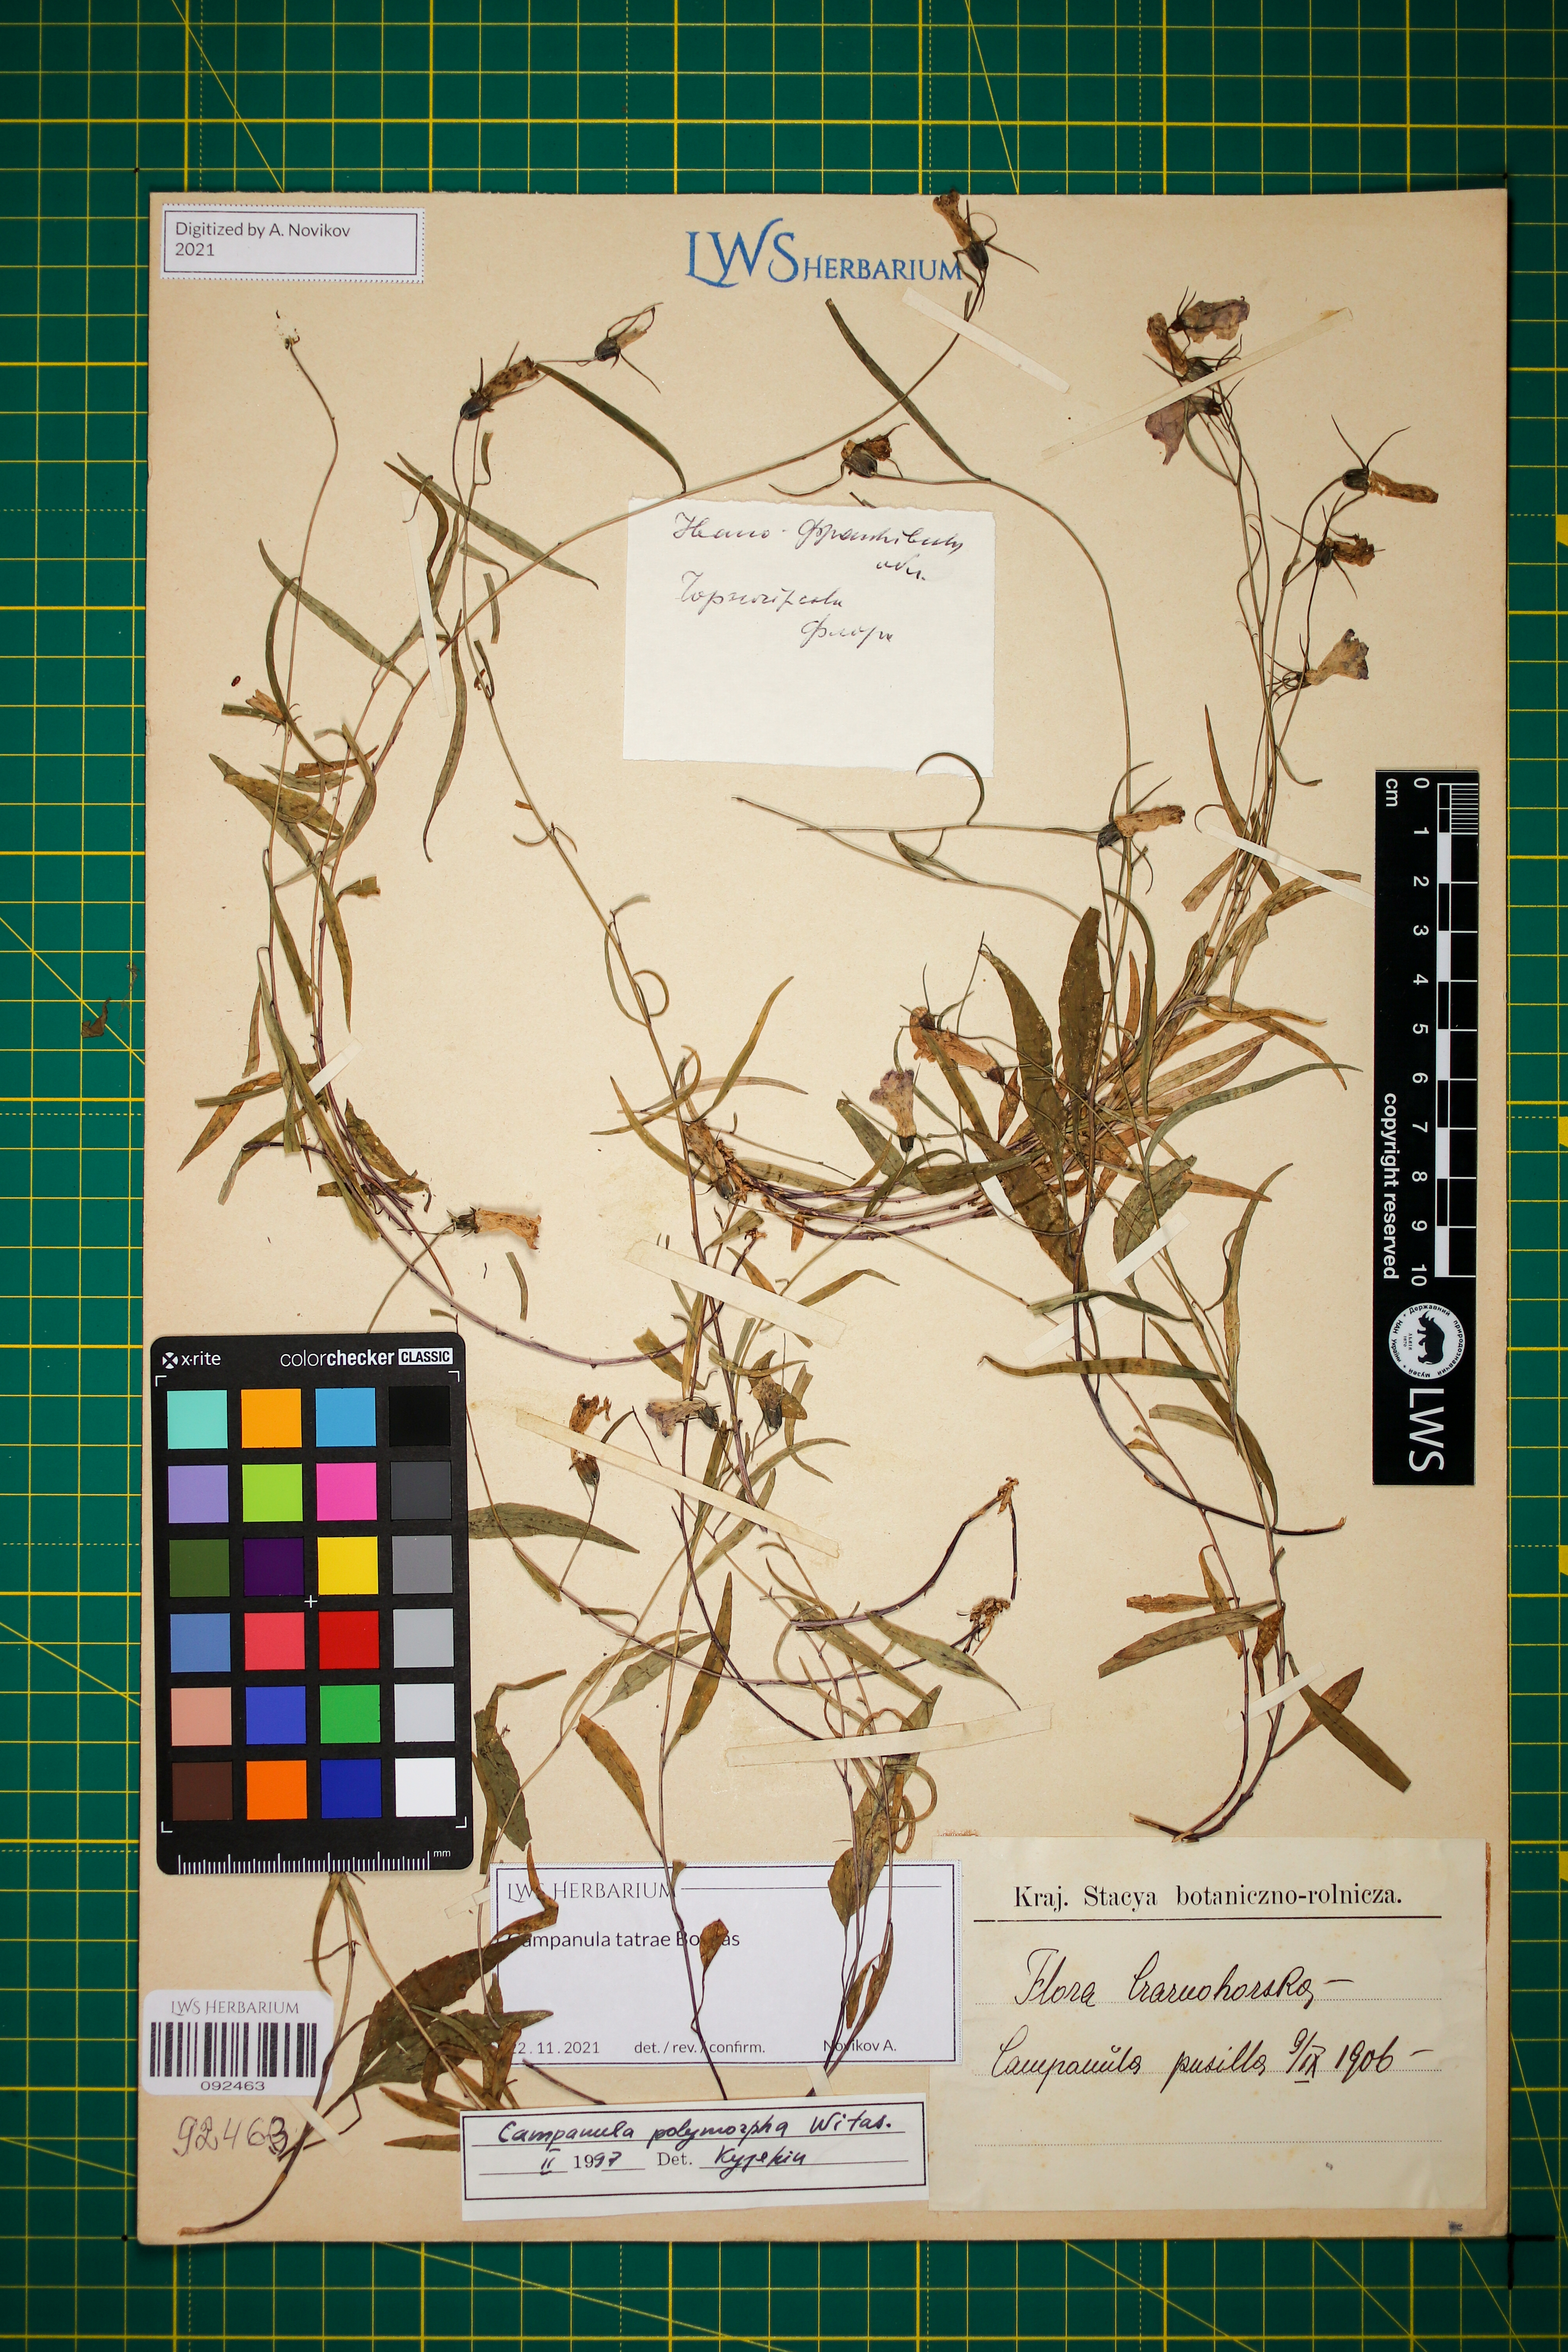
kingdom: Plantae
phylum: Tracheophyta
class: Magnoliopsida
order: Asterales
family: Campanulaceae
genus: Campanula
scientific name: Campanula tatrae
